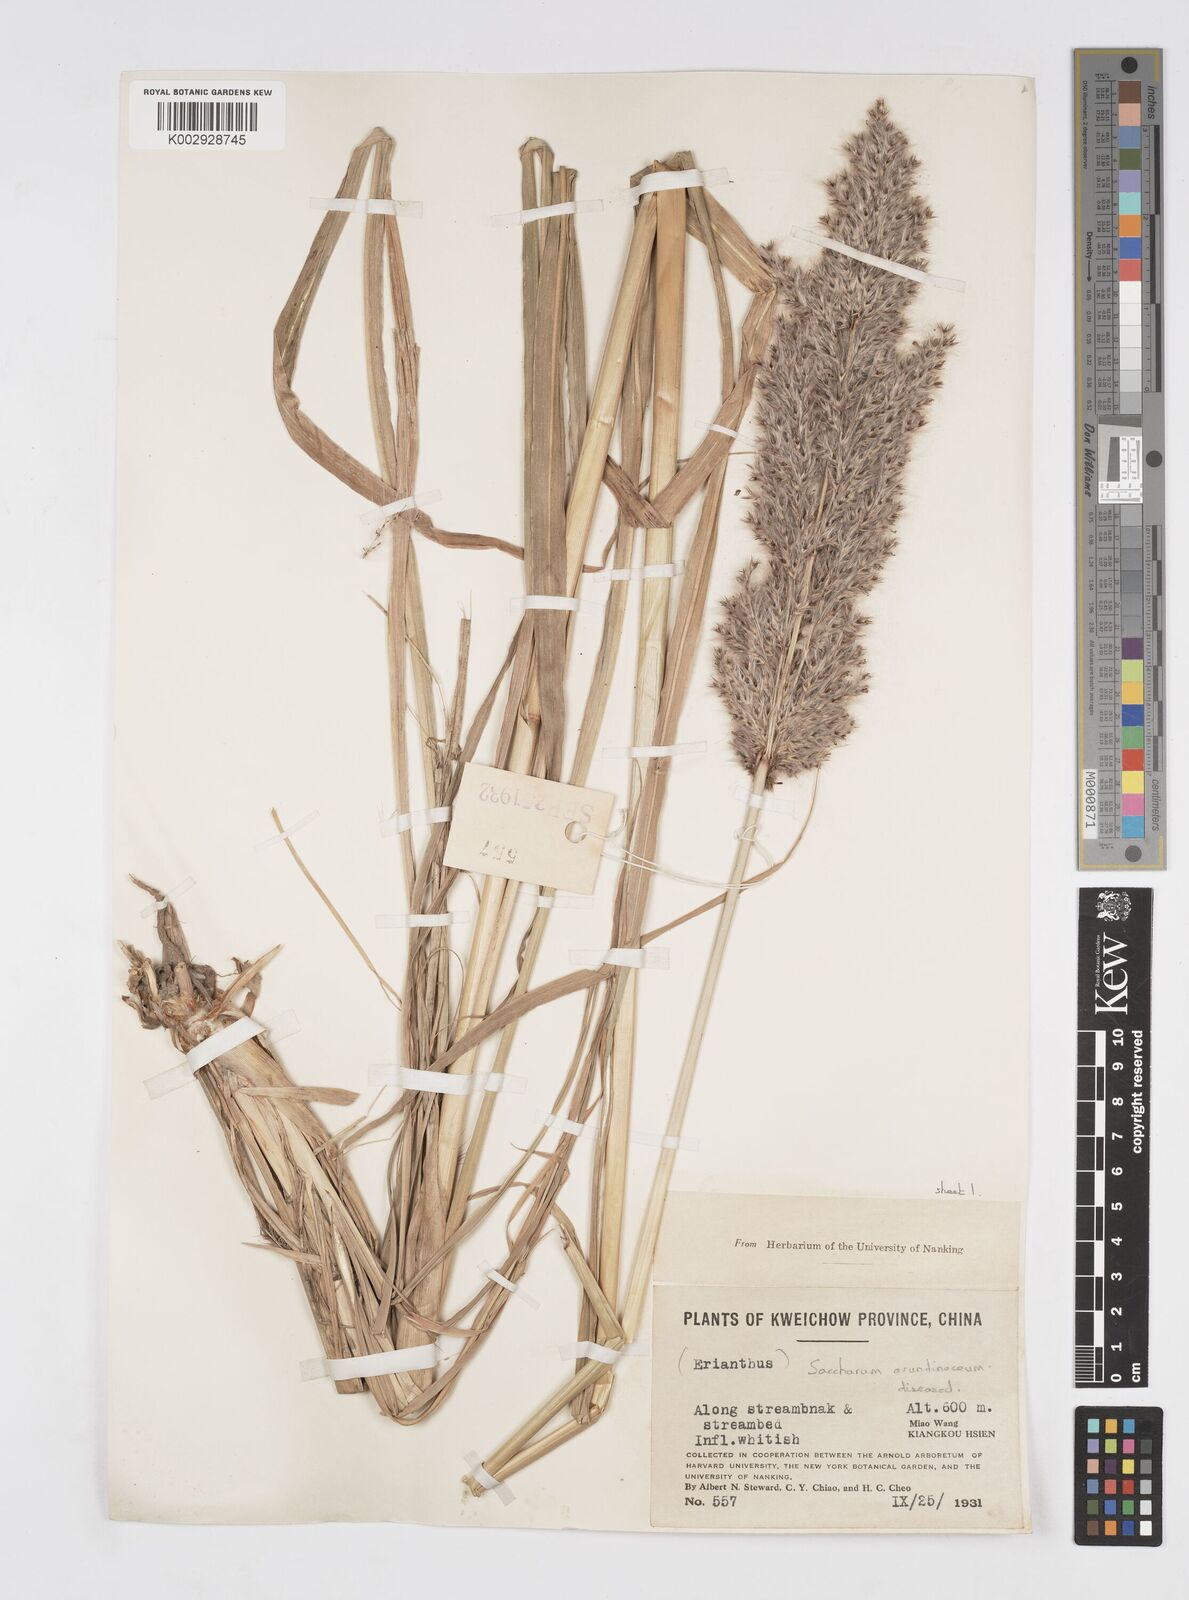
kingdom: Plantae
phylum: Tracheophyta
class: Liliopsida
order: Poales
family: Poaceae
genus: Tripidium
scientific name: Tripidium arundinaceum
